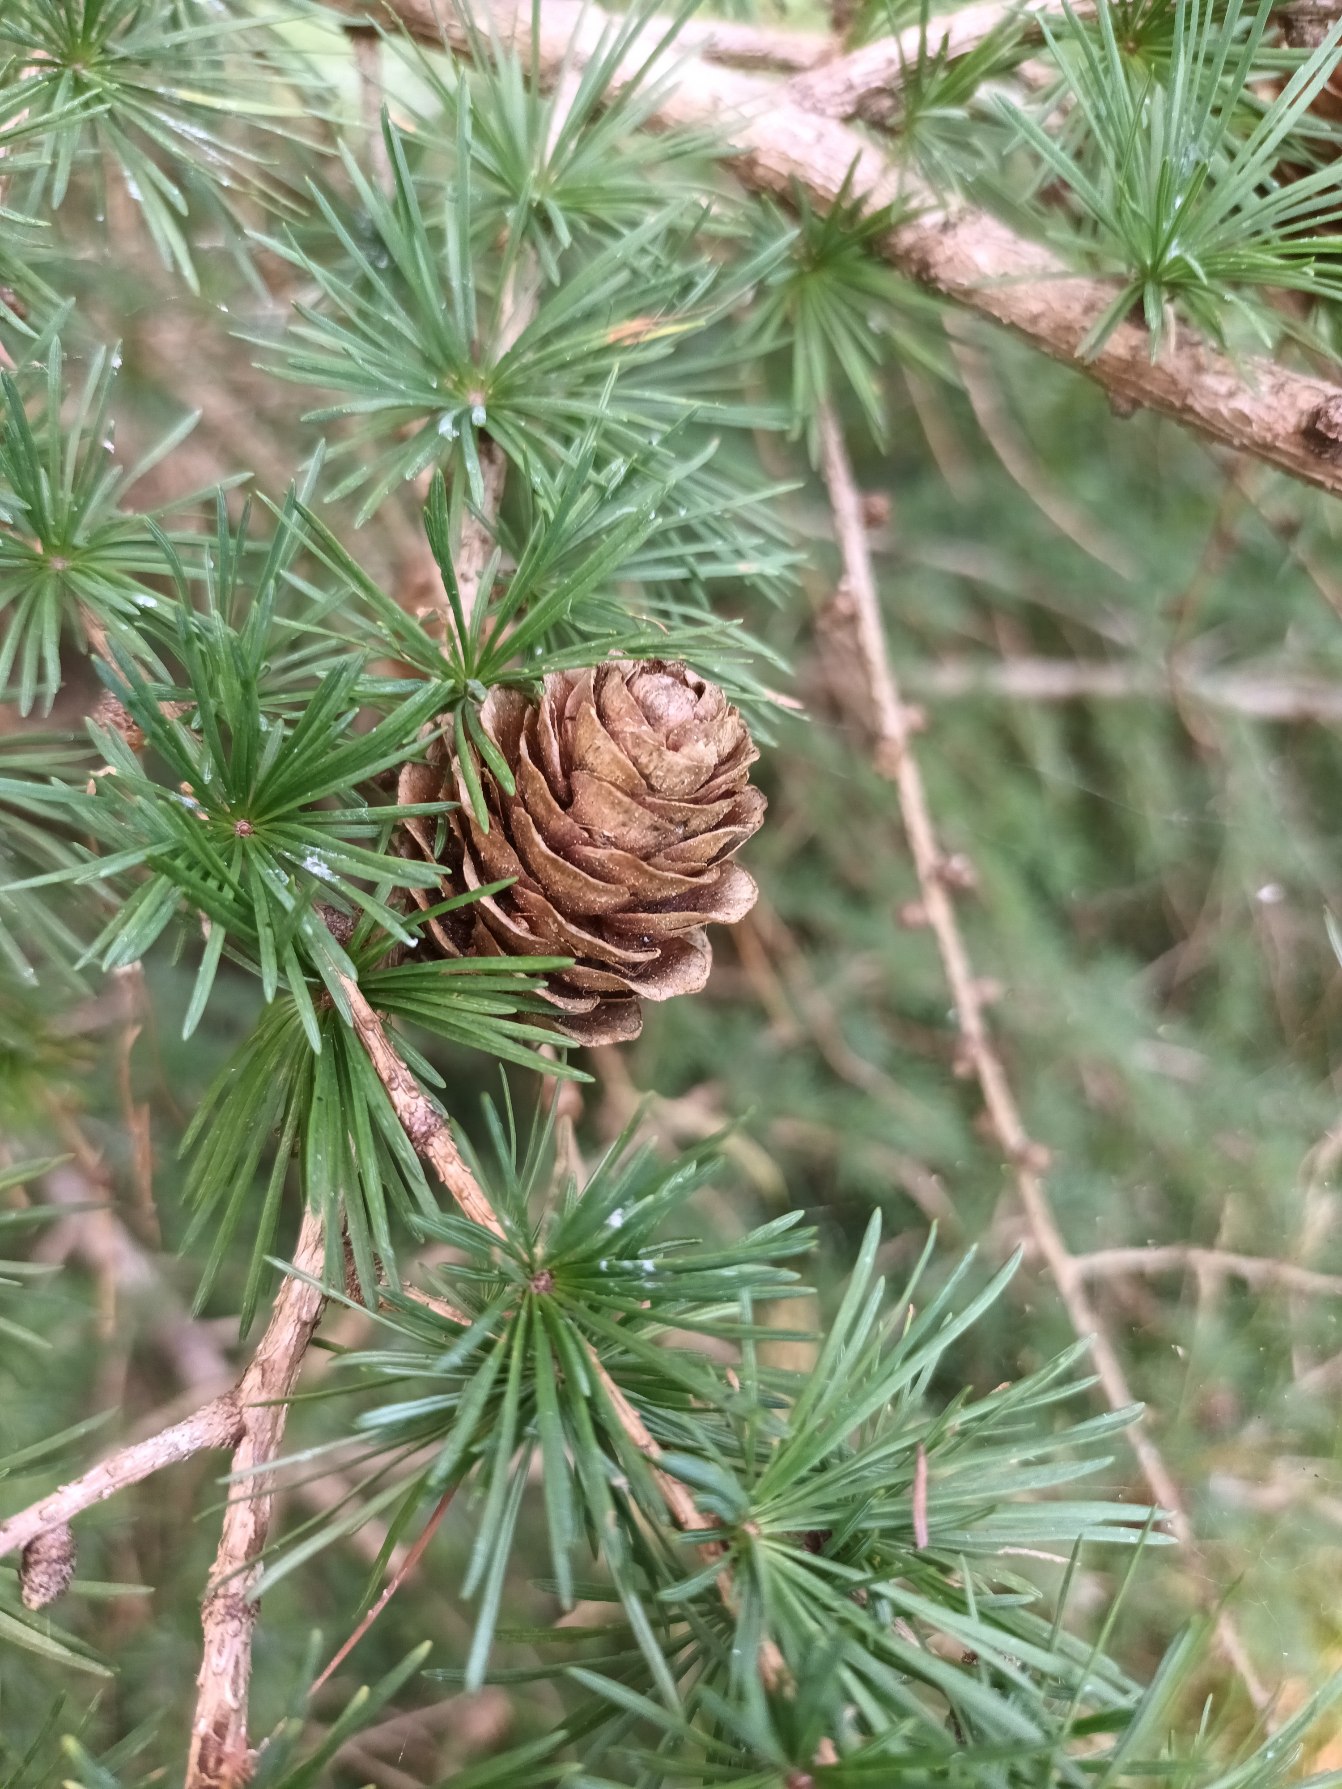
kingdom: Plantae
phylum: Tracheophyta
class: Pinopsida
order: Pinales
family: Pinaceae
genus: Larix
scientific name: Larix marschlinsii
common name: Hybrid-lærk
